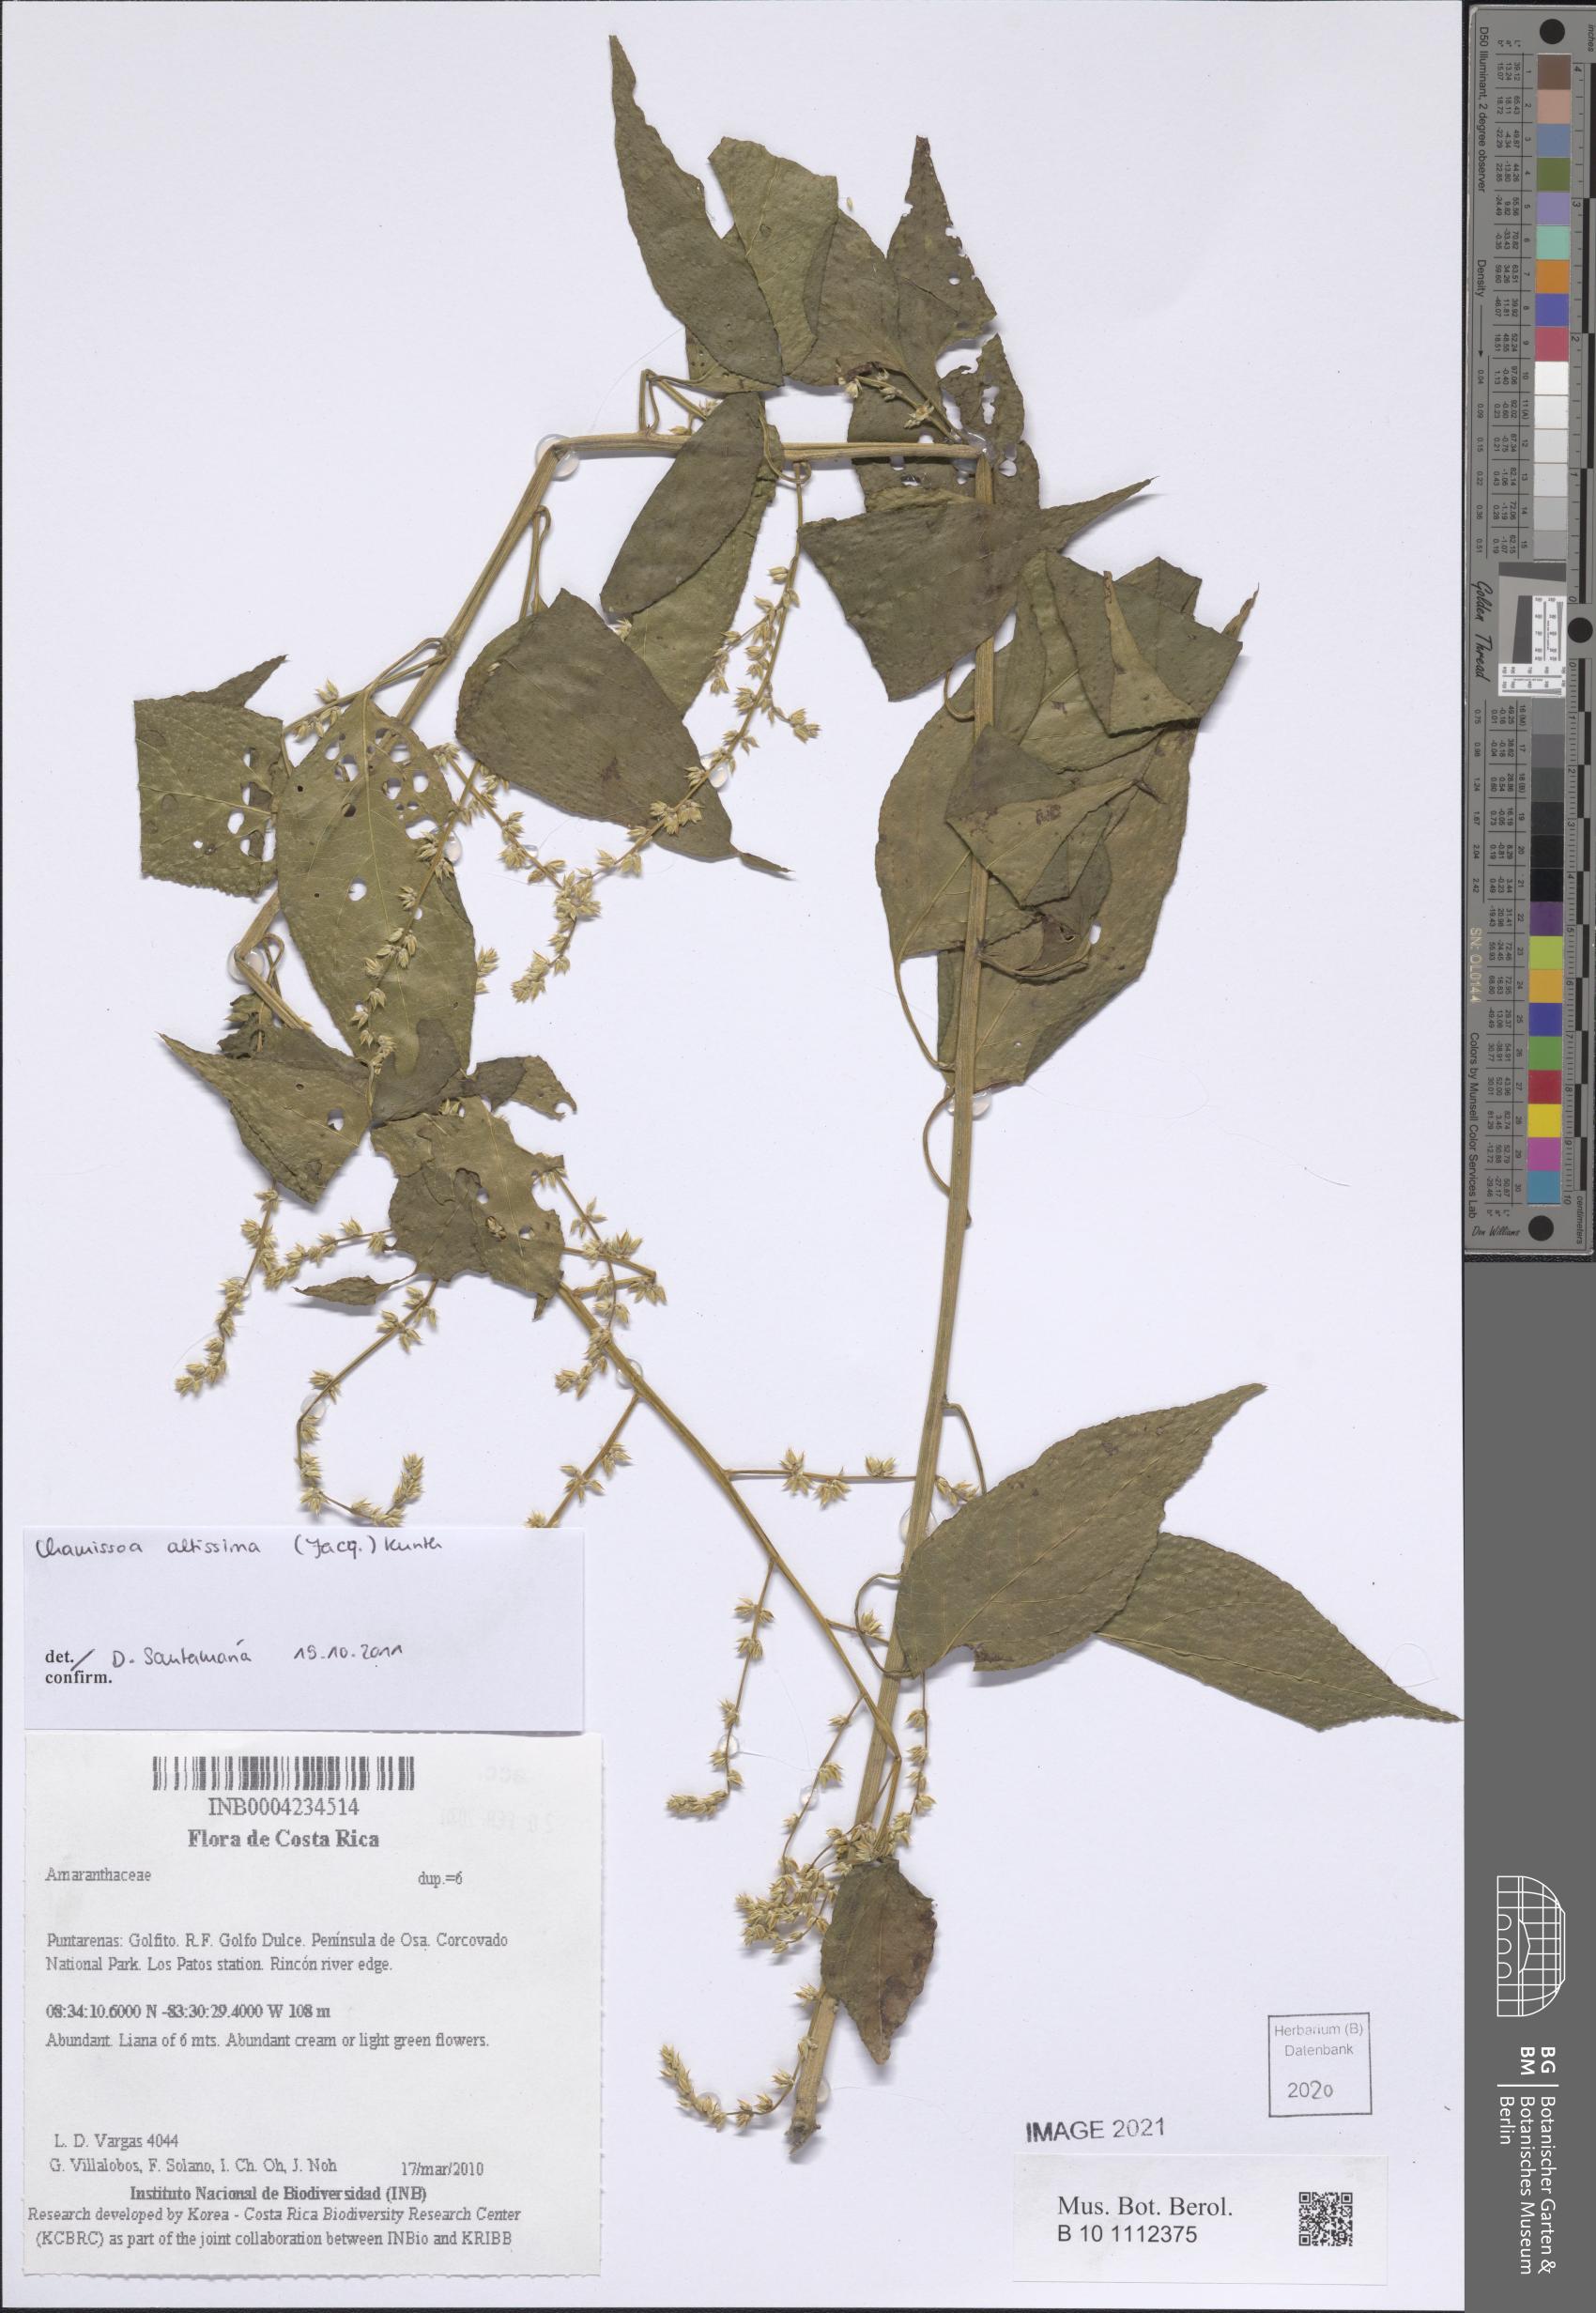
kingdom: Plantae
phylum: Tracheophyta
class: Magnoliopsida
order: Caryophyllales
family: Amaranthaceae
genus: Chamissoa
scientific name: Chamissoa altissima
